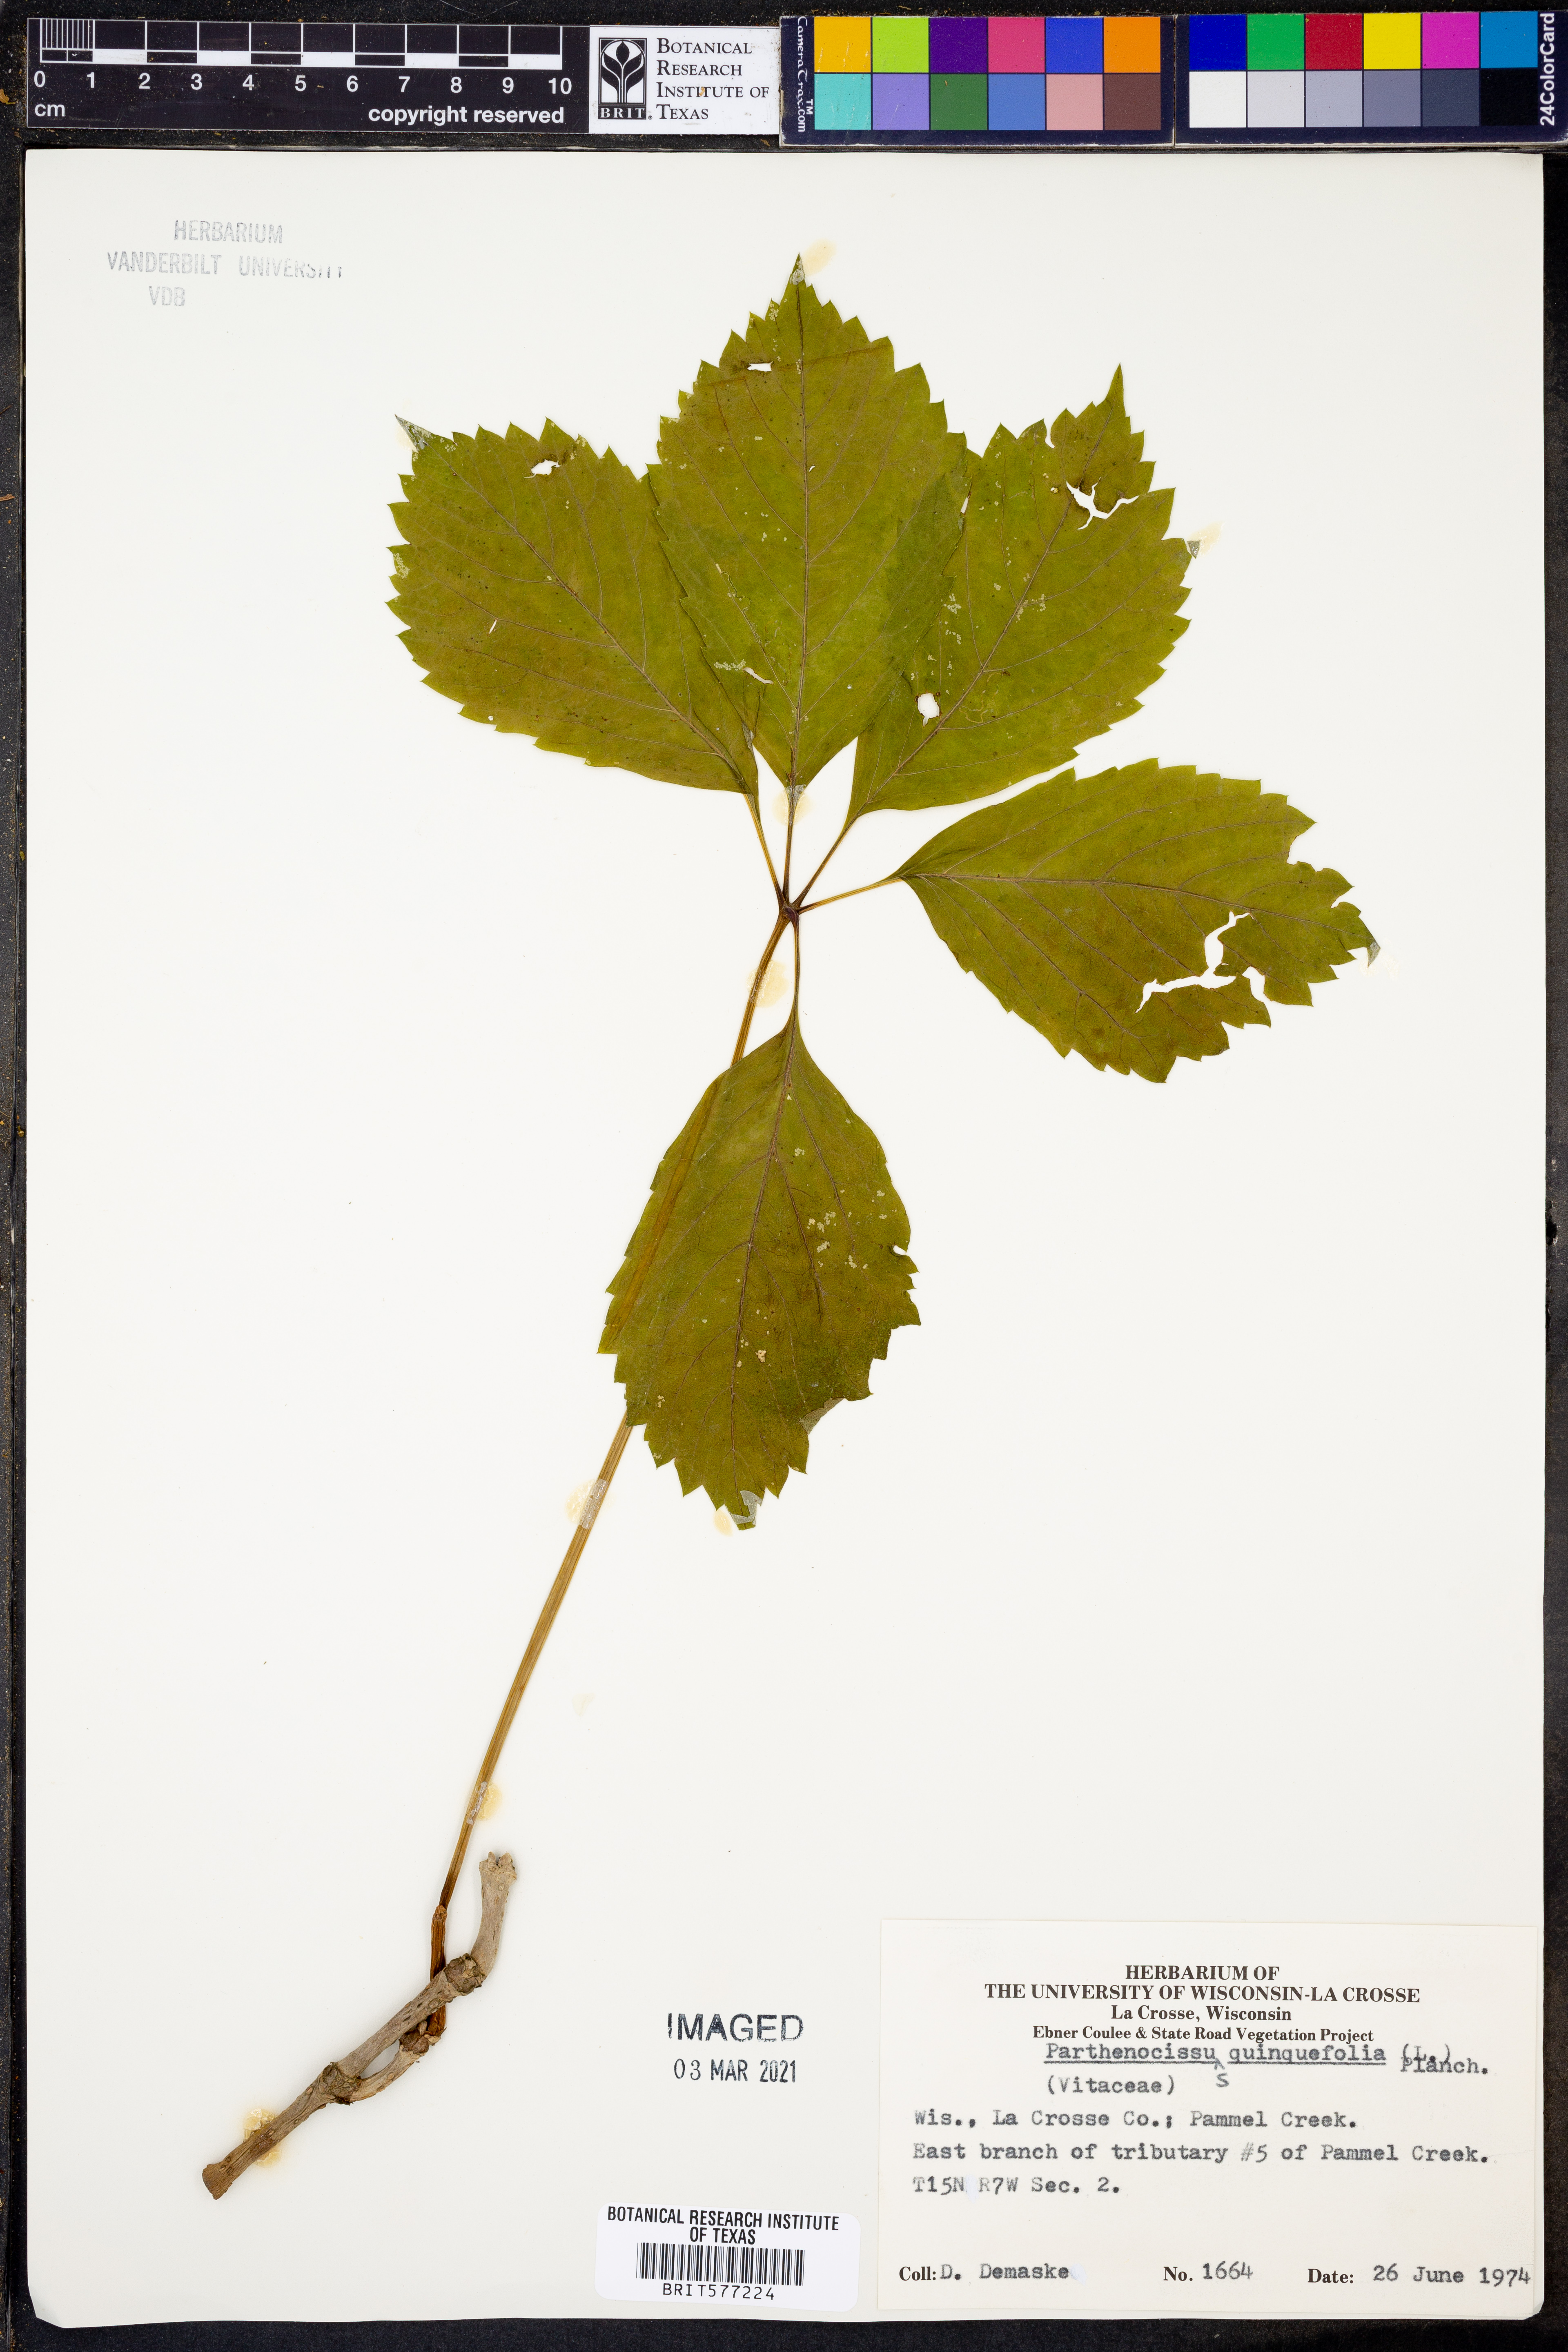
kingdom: Plantae
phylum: Tracheophyta
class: Magnoliopsida
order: Vitales
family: Vitaceae
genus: Parthenocissus
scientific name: Parthenocissus quinquefolia
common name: Virginia-creeper
